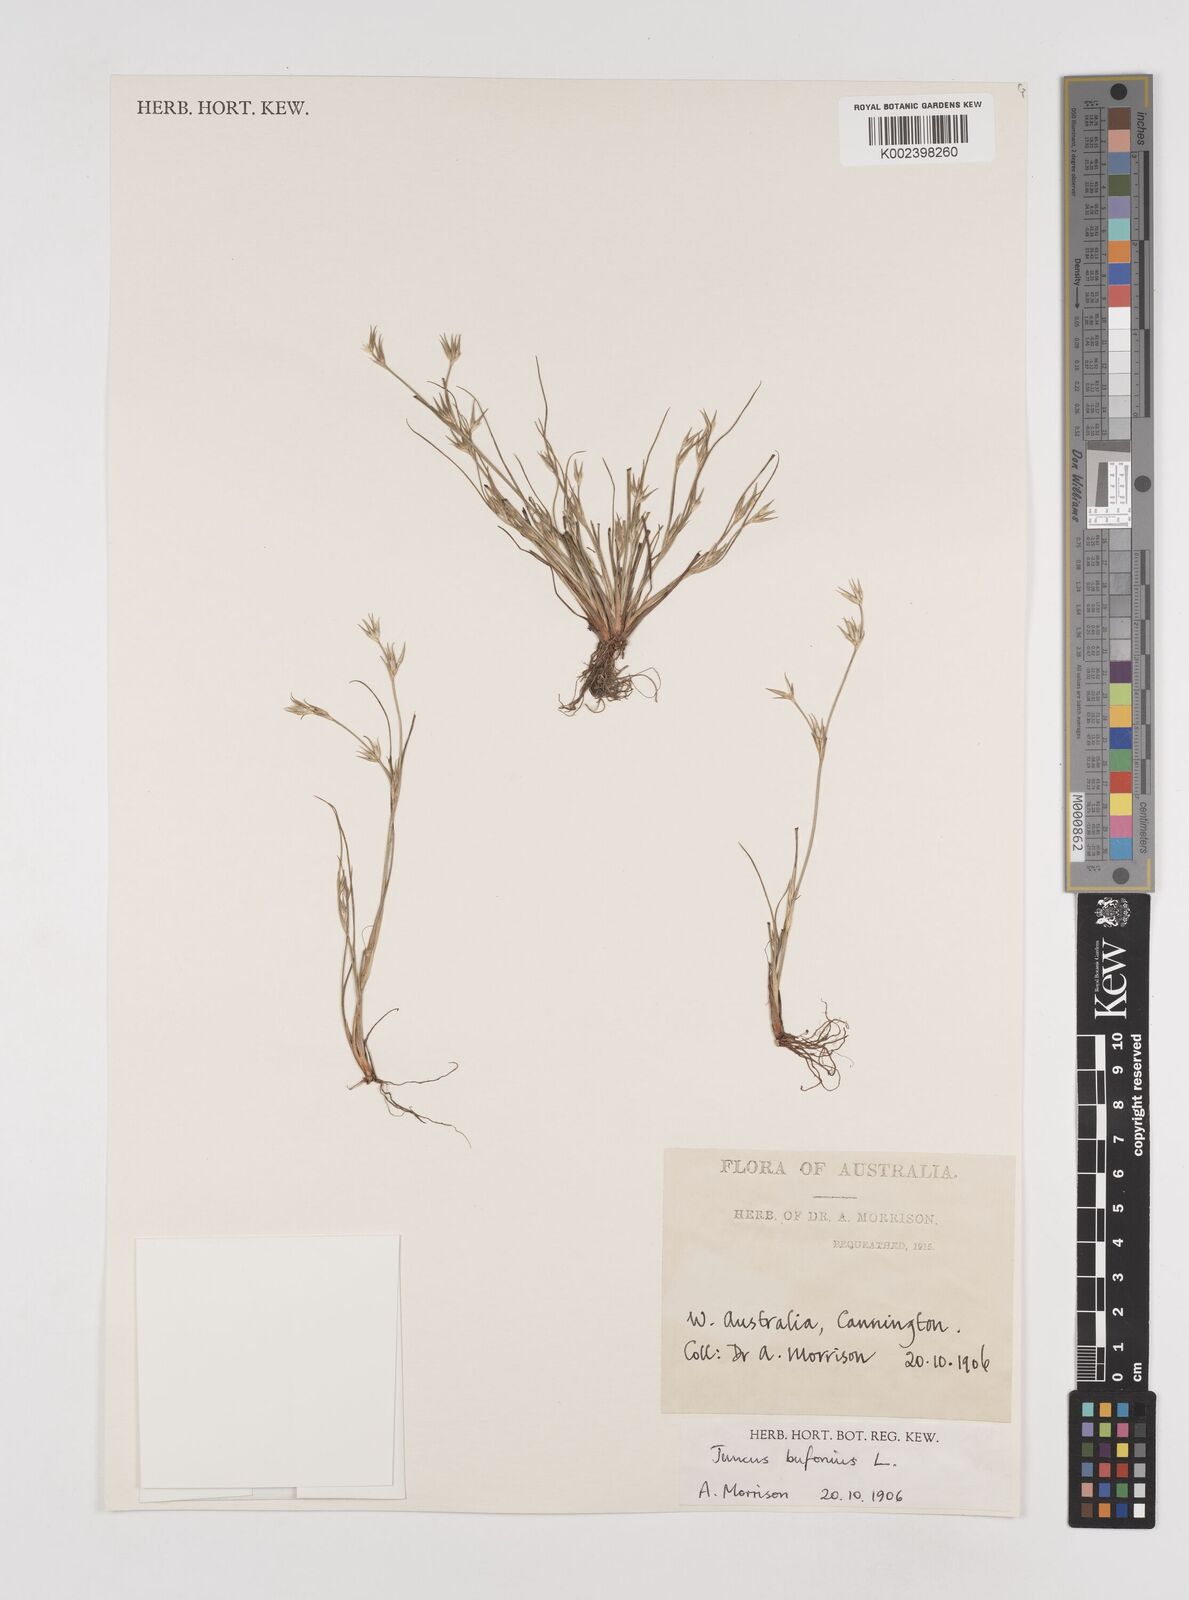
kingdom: Plantae
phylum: Tracheophyta
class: Liliopsida
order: Poales
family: Juncaceae
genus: Juncus
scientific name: Juncus bufonius
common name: Toad rush
